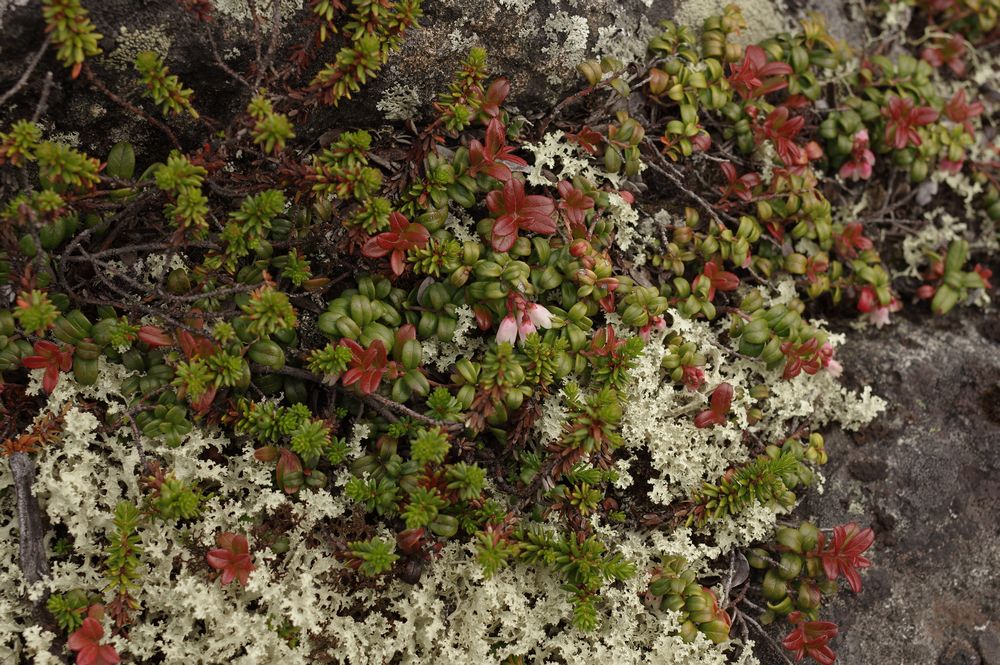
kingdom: Plantae
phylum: Tracheophyta
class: Magnoliopsida
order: Ericales
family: Ericaceae
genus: Vaccinium
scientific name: Vaccinium vitis-idaea
